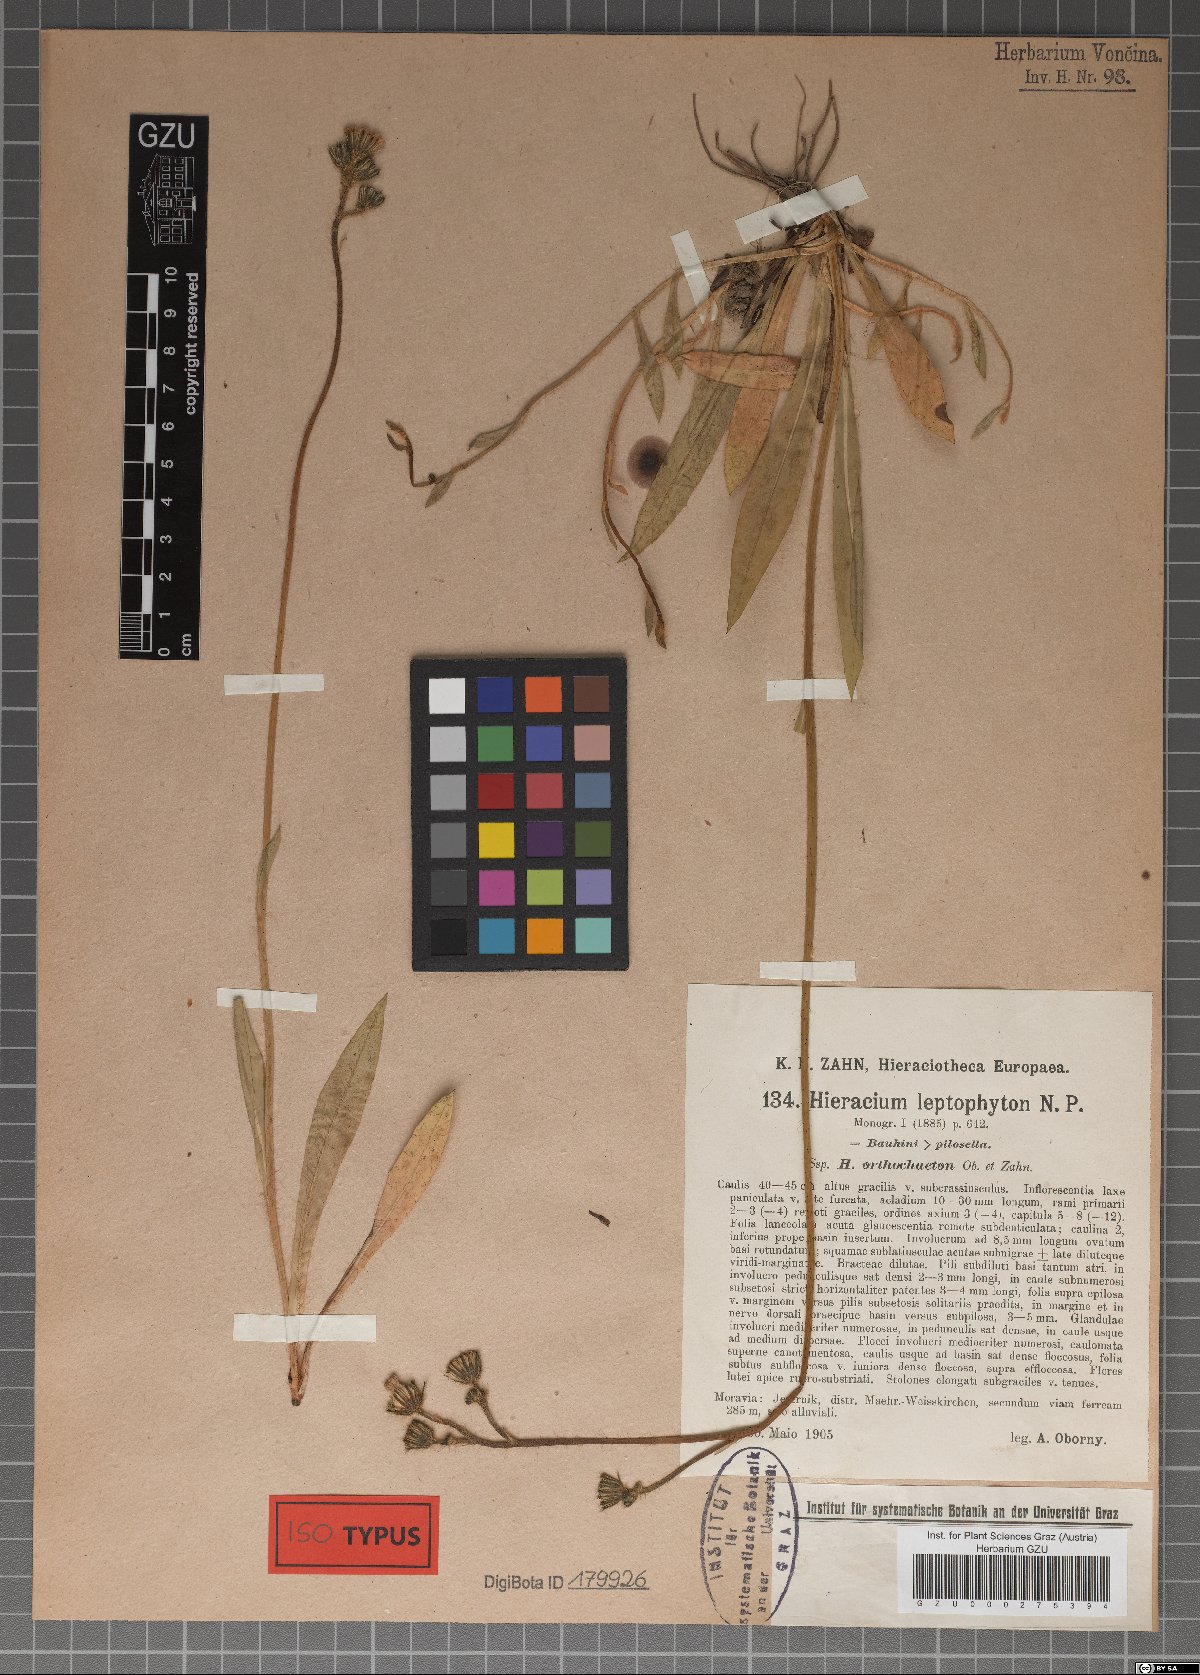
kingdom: Plantae
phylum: Tracheophyta
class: Magnoliopsida
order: Asterales
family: Asteraceae
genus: Pilosella
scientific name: Pilosella leptophyton
